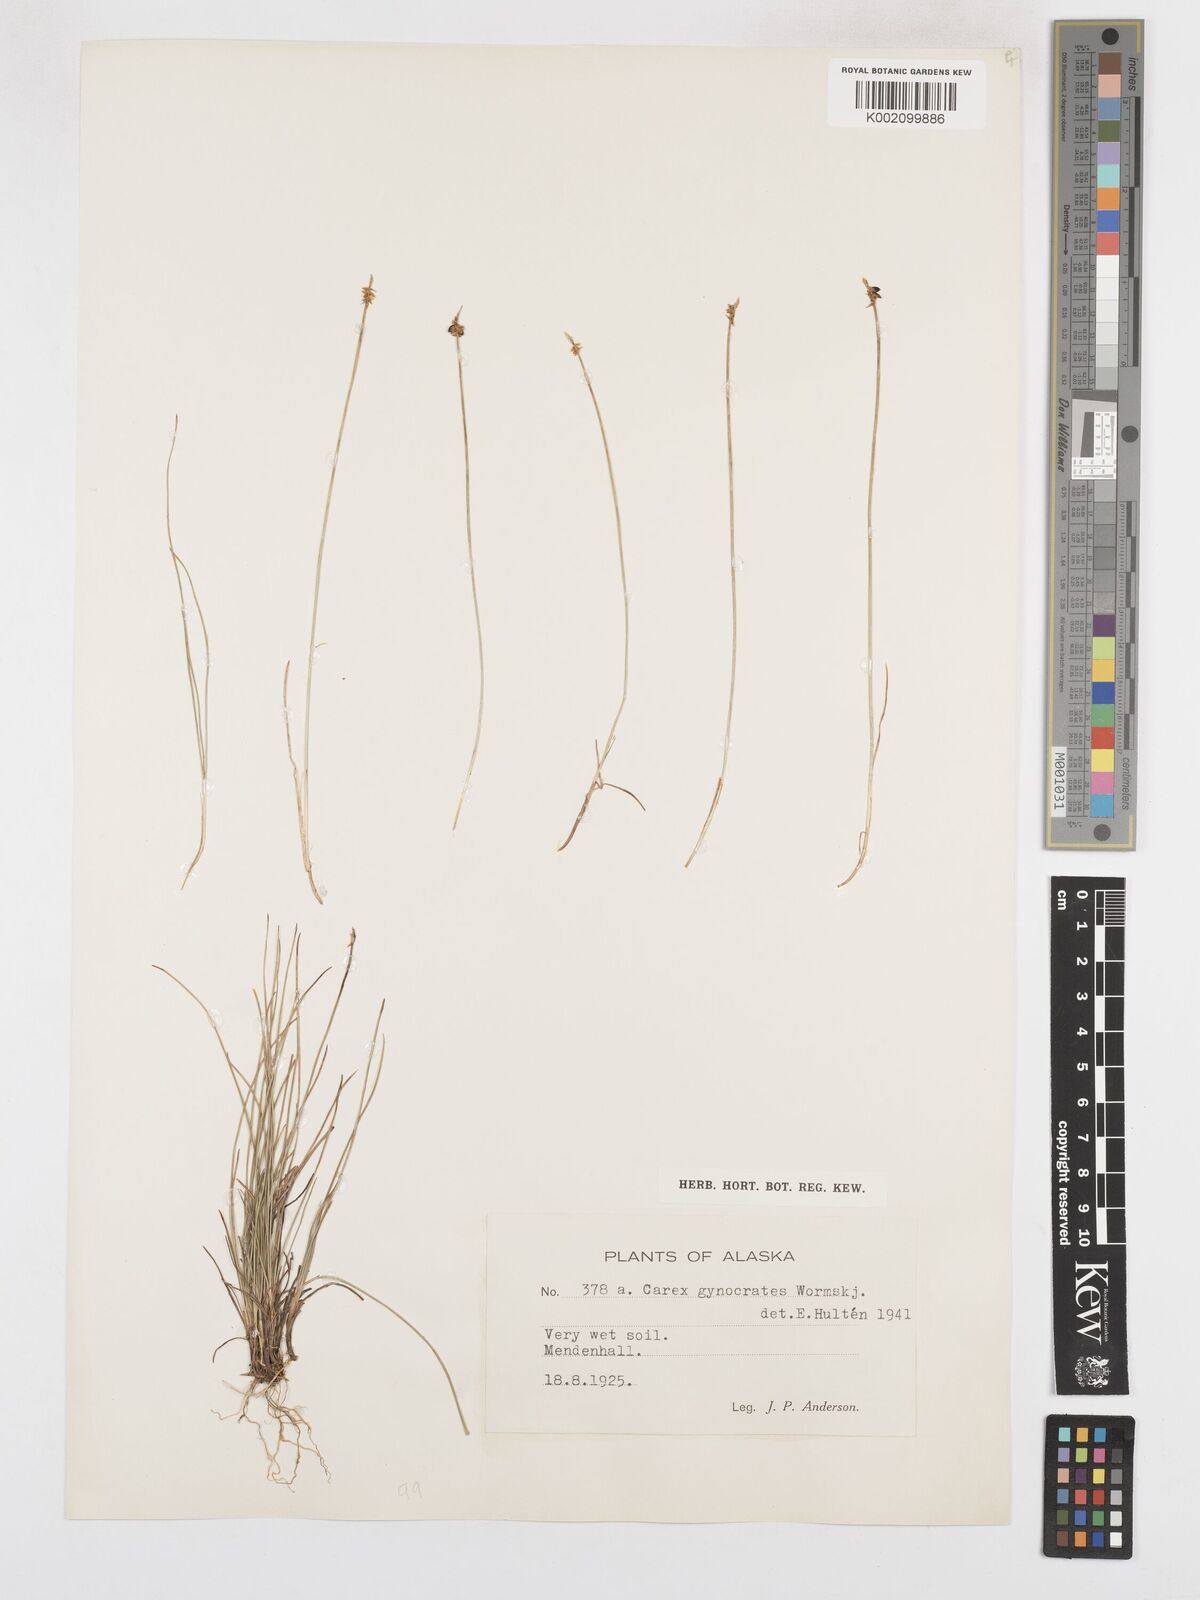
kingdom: Plantae
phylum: Tracheophyta
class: Liliopsida
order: Poales
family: Cyperaceae
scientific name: Cyperaceae
